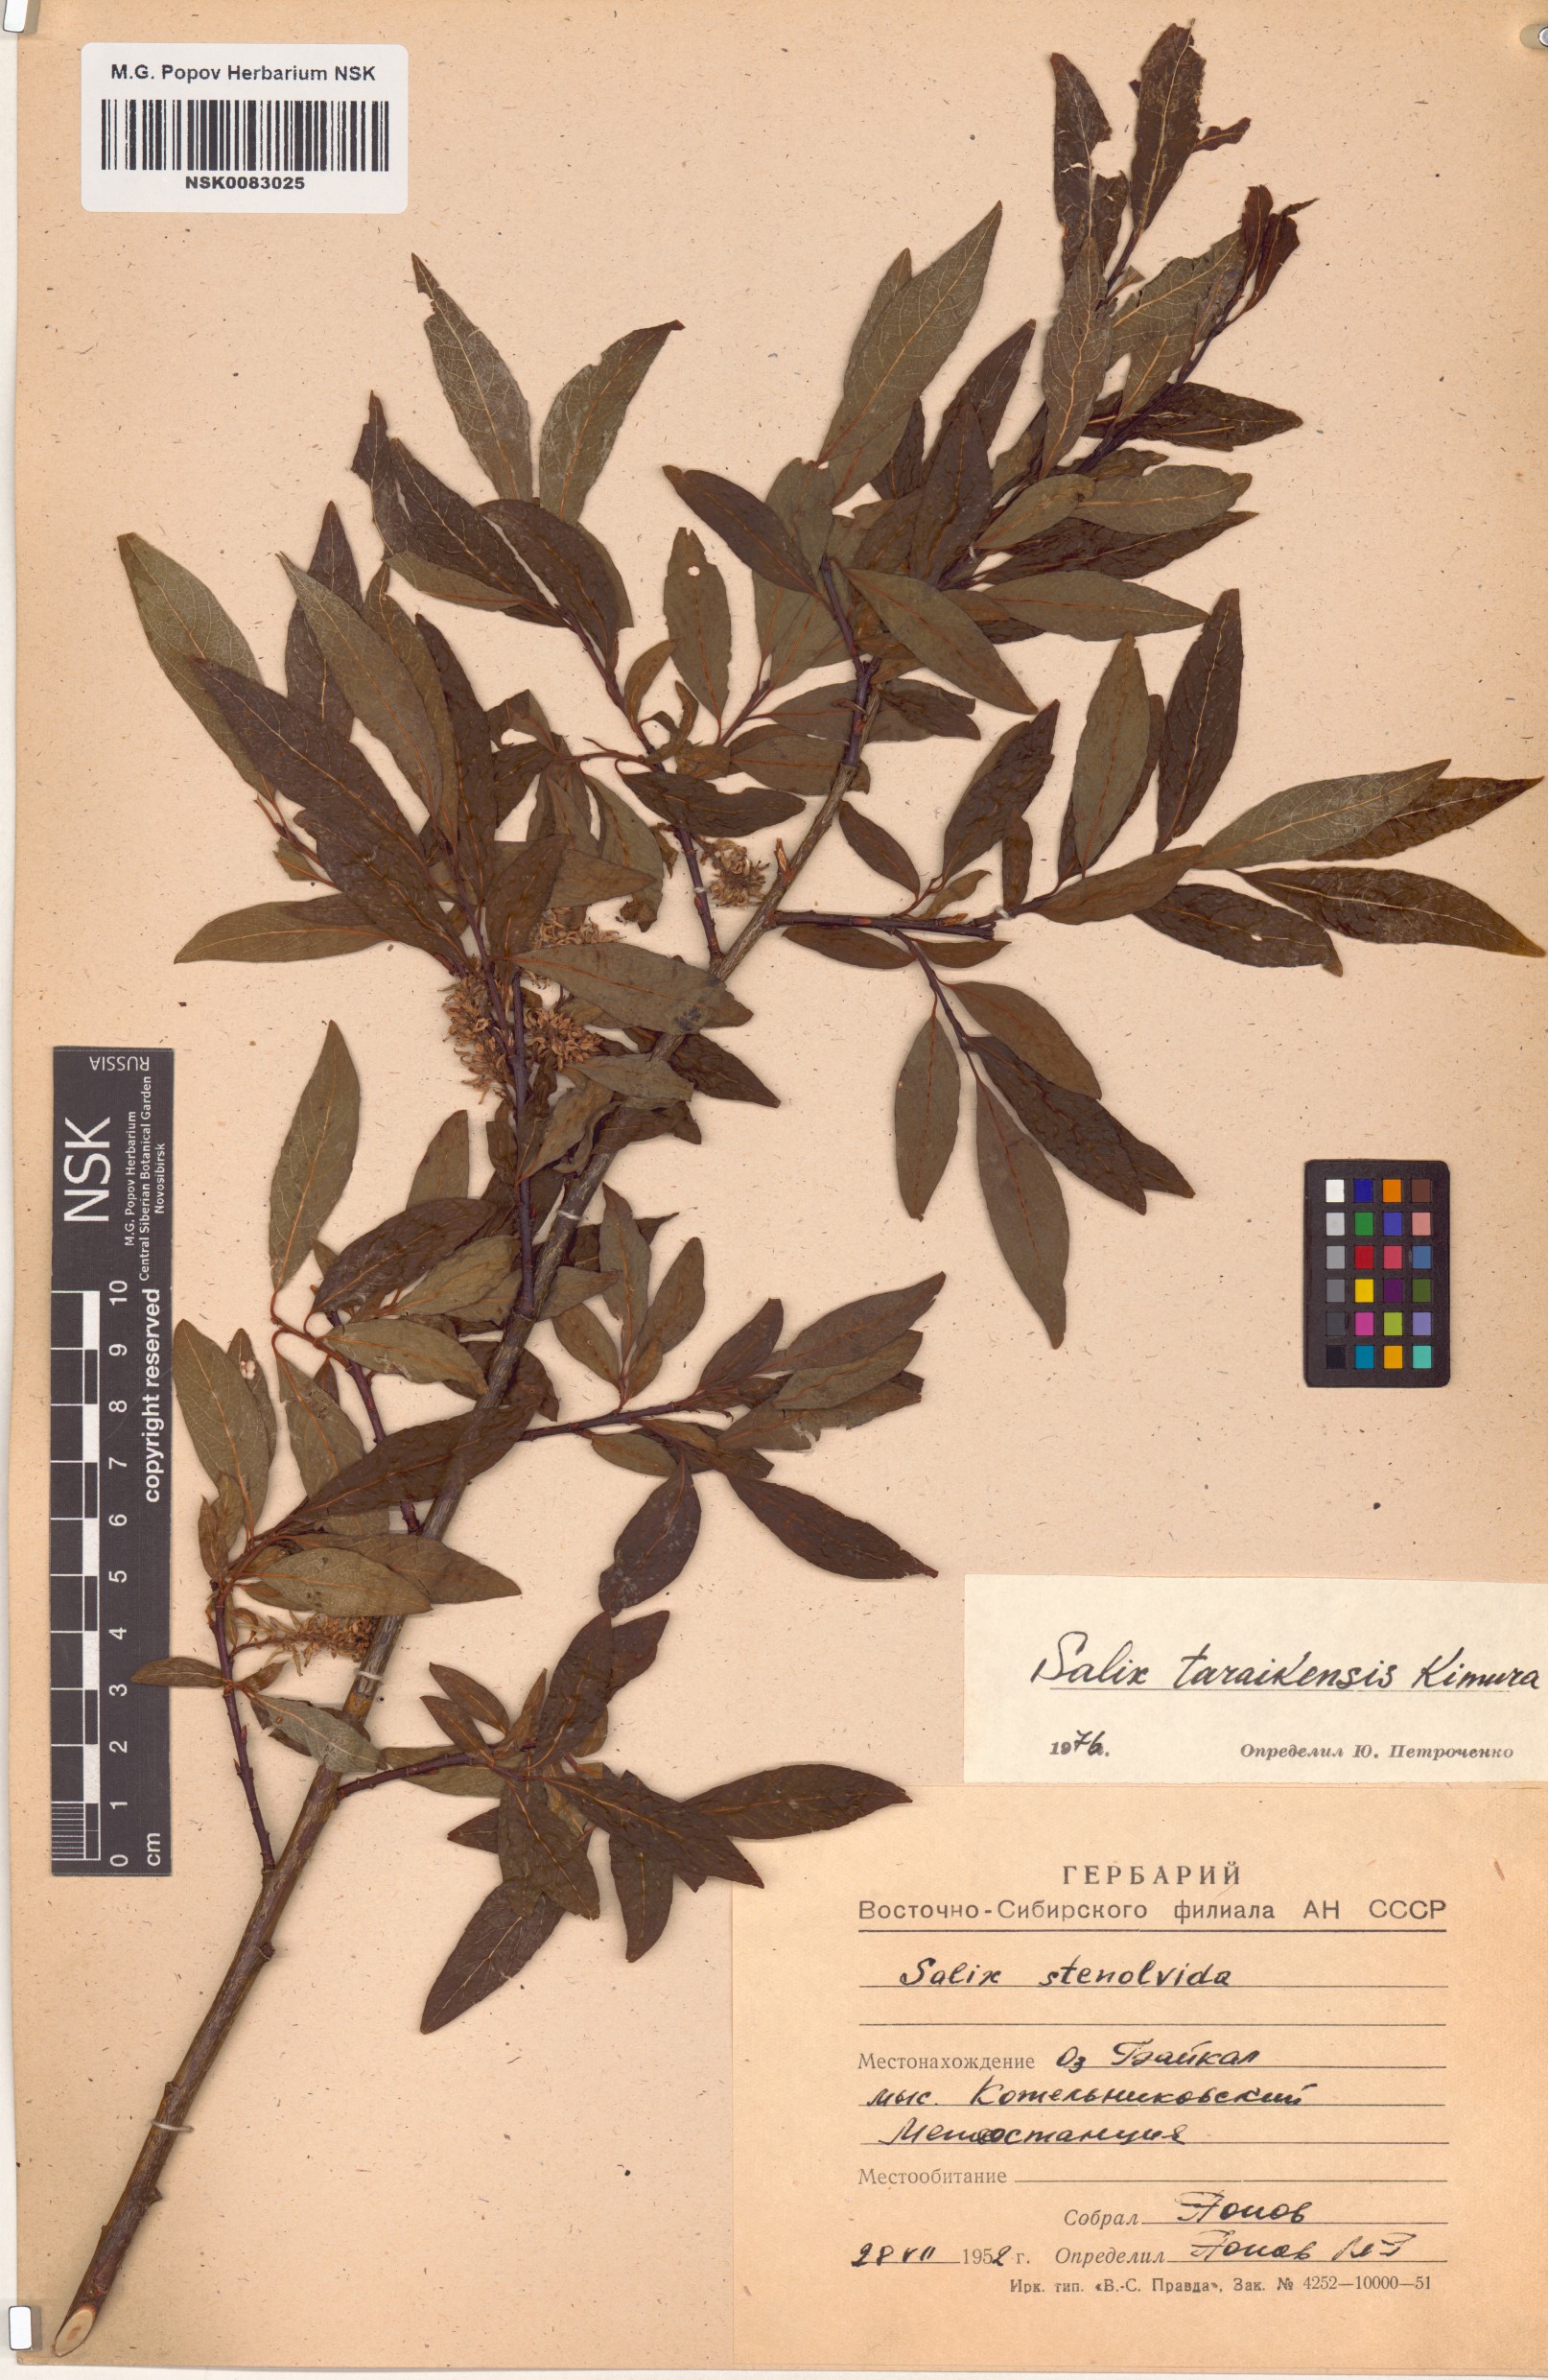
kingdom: Plantae
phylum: Tracheophyta
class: Magnoliopsida
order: Malpighiales
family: Salicaceae
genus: Salix
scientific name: Salix taraikensis
